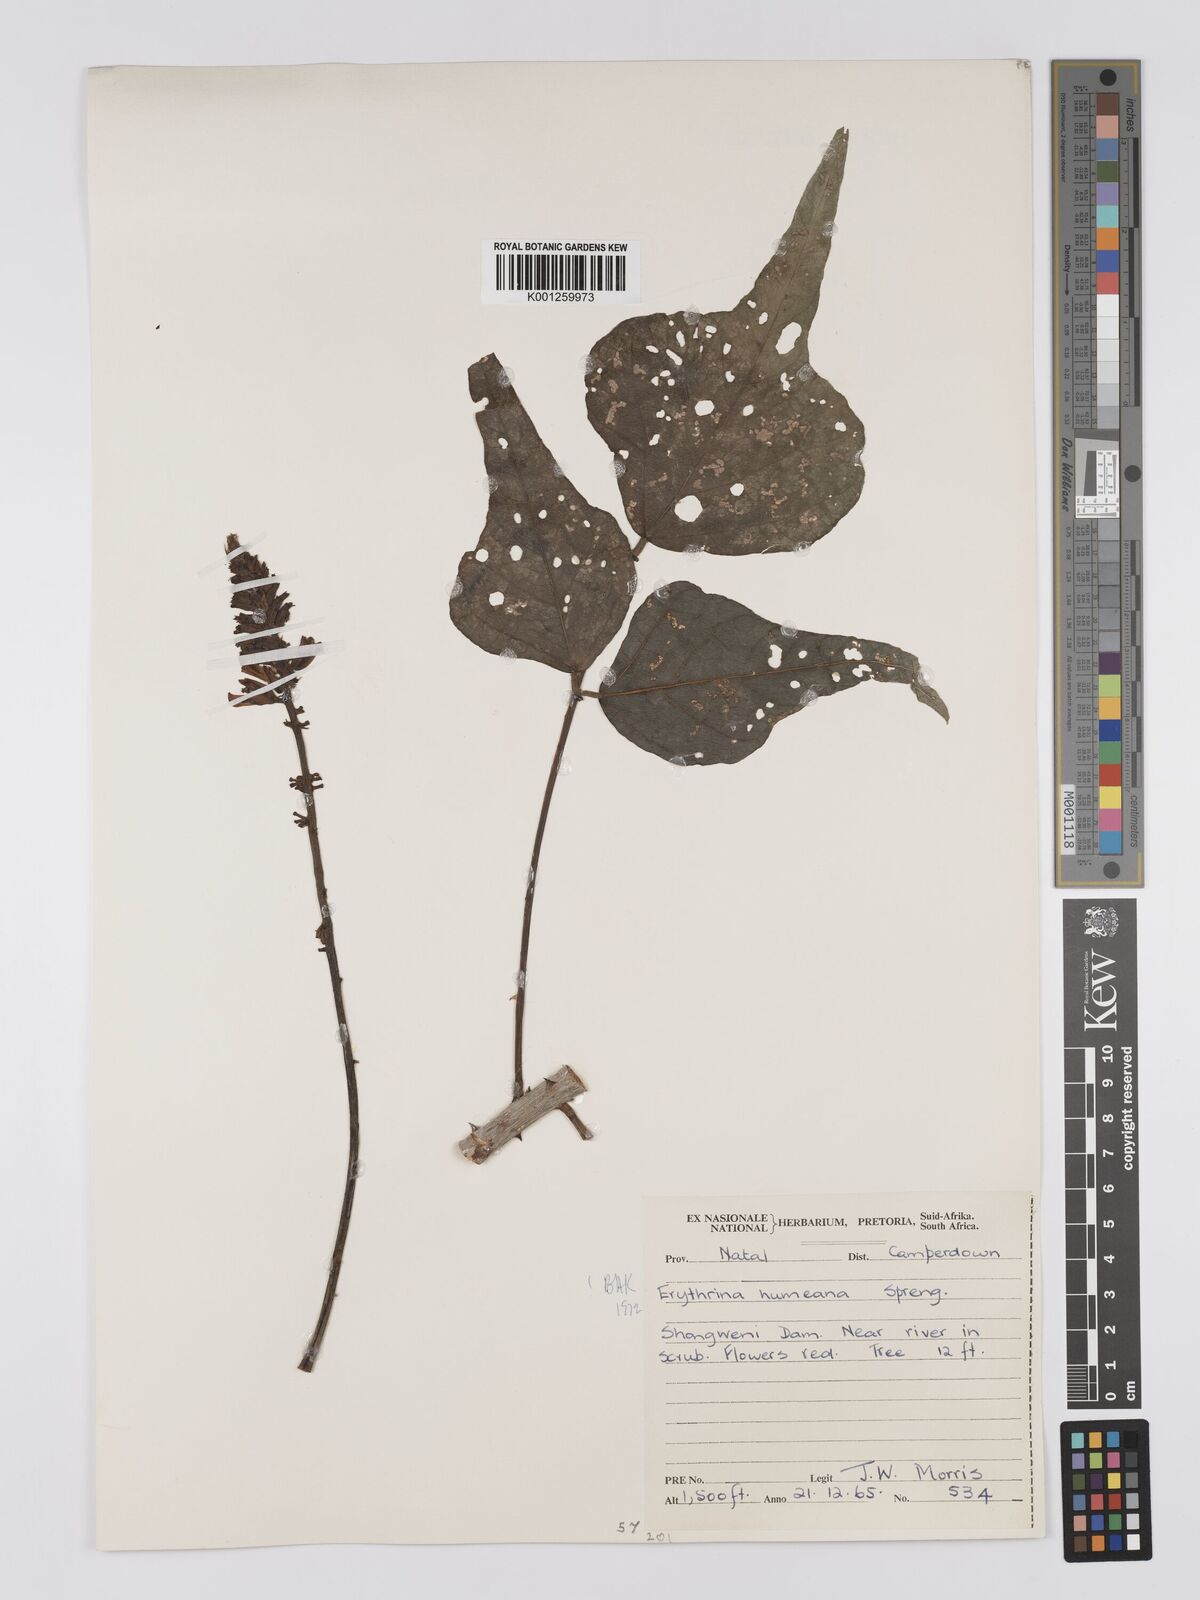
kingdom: Plantae
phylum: Tracheophyta
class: Magnoliopsida
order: Fabales
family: Fabaceae
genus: Erythrina
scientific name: Erythrina humeana
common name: Dwarf coral tree
